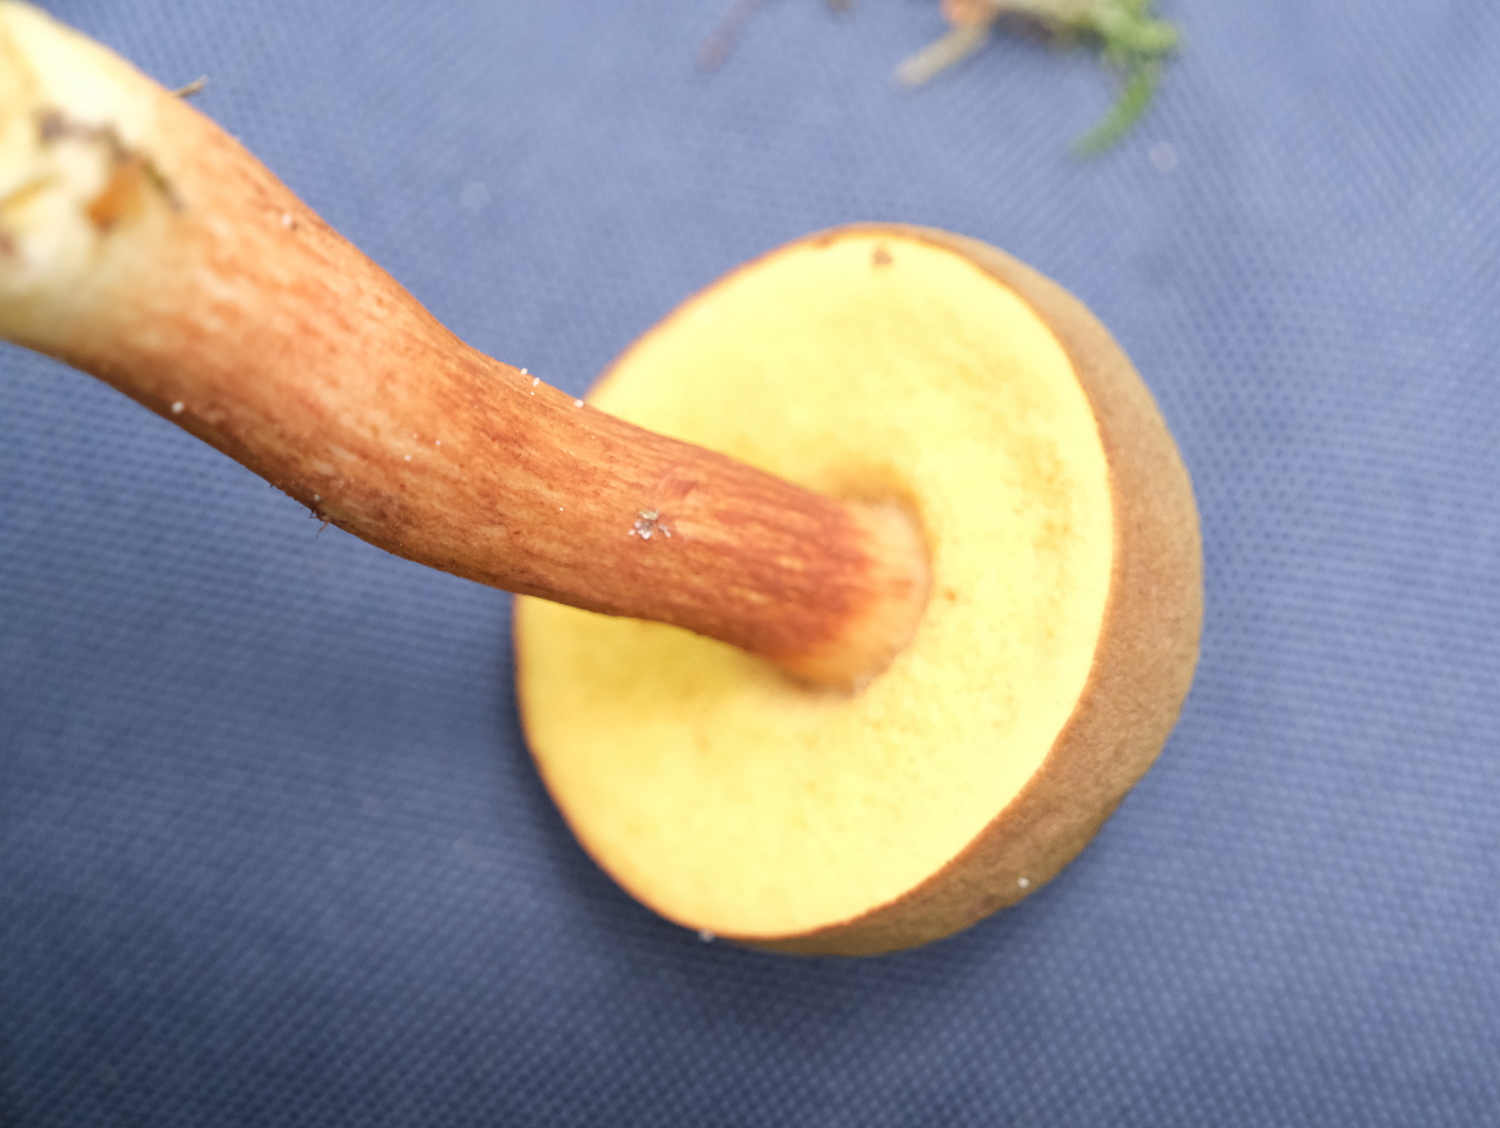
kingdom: Fungi
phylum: Basidiomycota
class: Agaricomycetes
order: Boletales
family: Boletaceae
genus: Xerocomus
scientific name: Xerocomus ferrugineus
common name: vaskeskinds-rørhat
